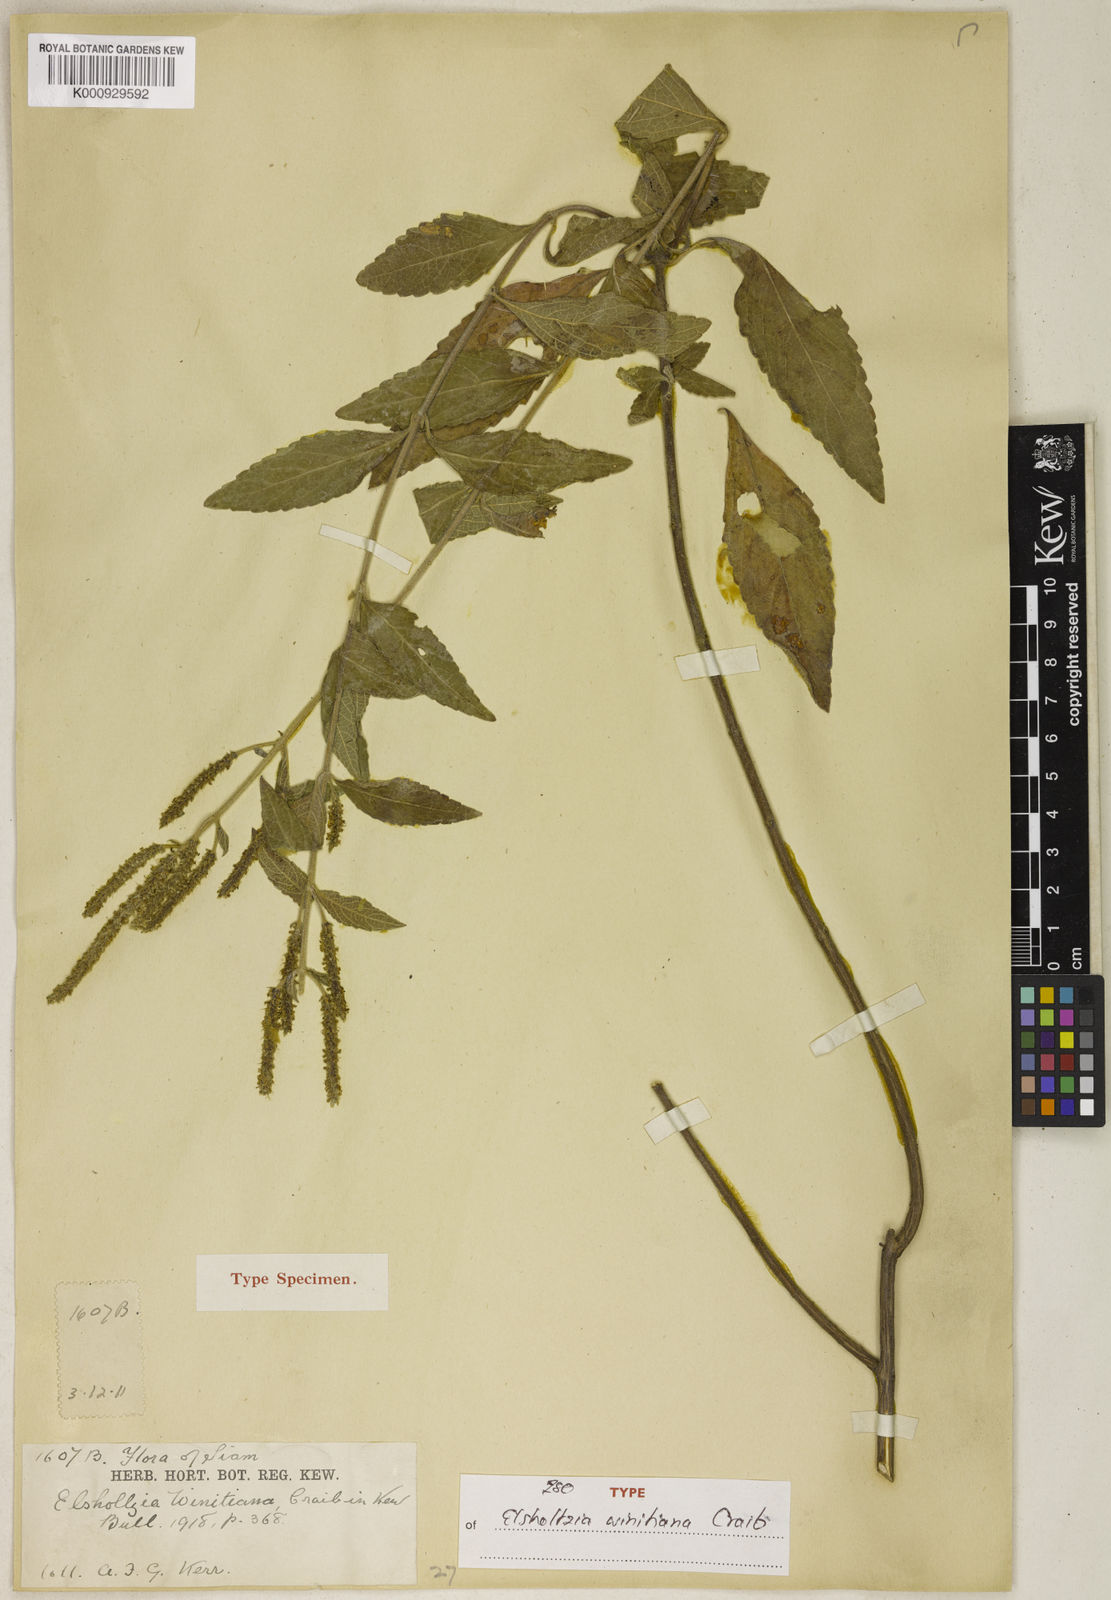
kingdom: Plantae
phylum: Tracheophyta
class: Magnoliopsida
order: Lamiales
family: Lamiaceae
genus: Elsholtzia
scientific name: Elsholtzia winitiana
